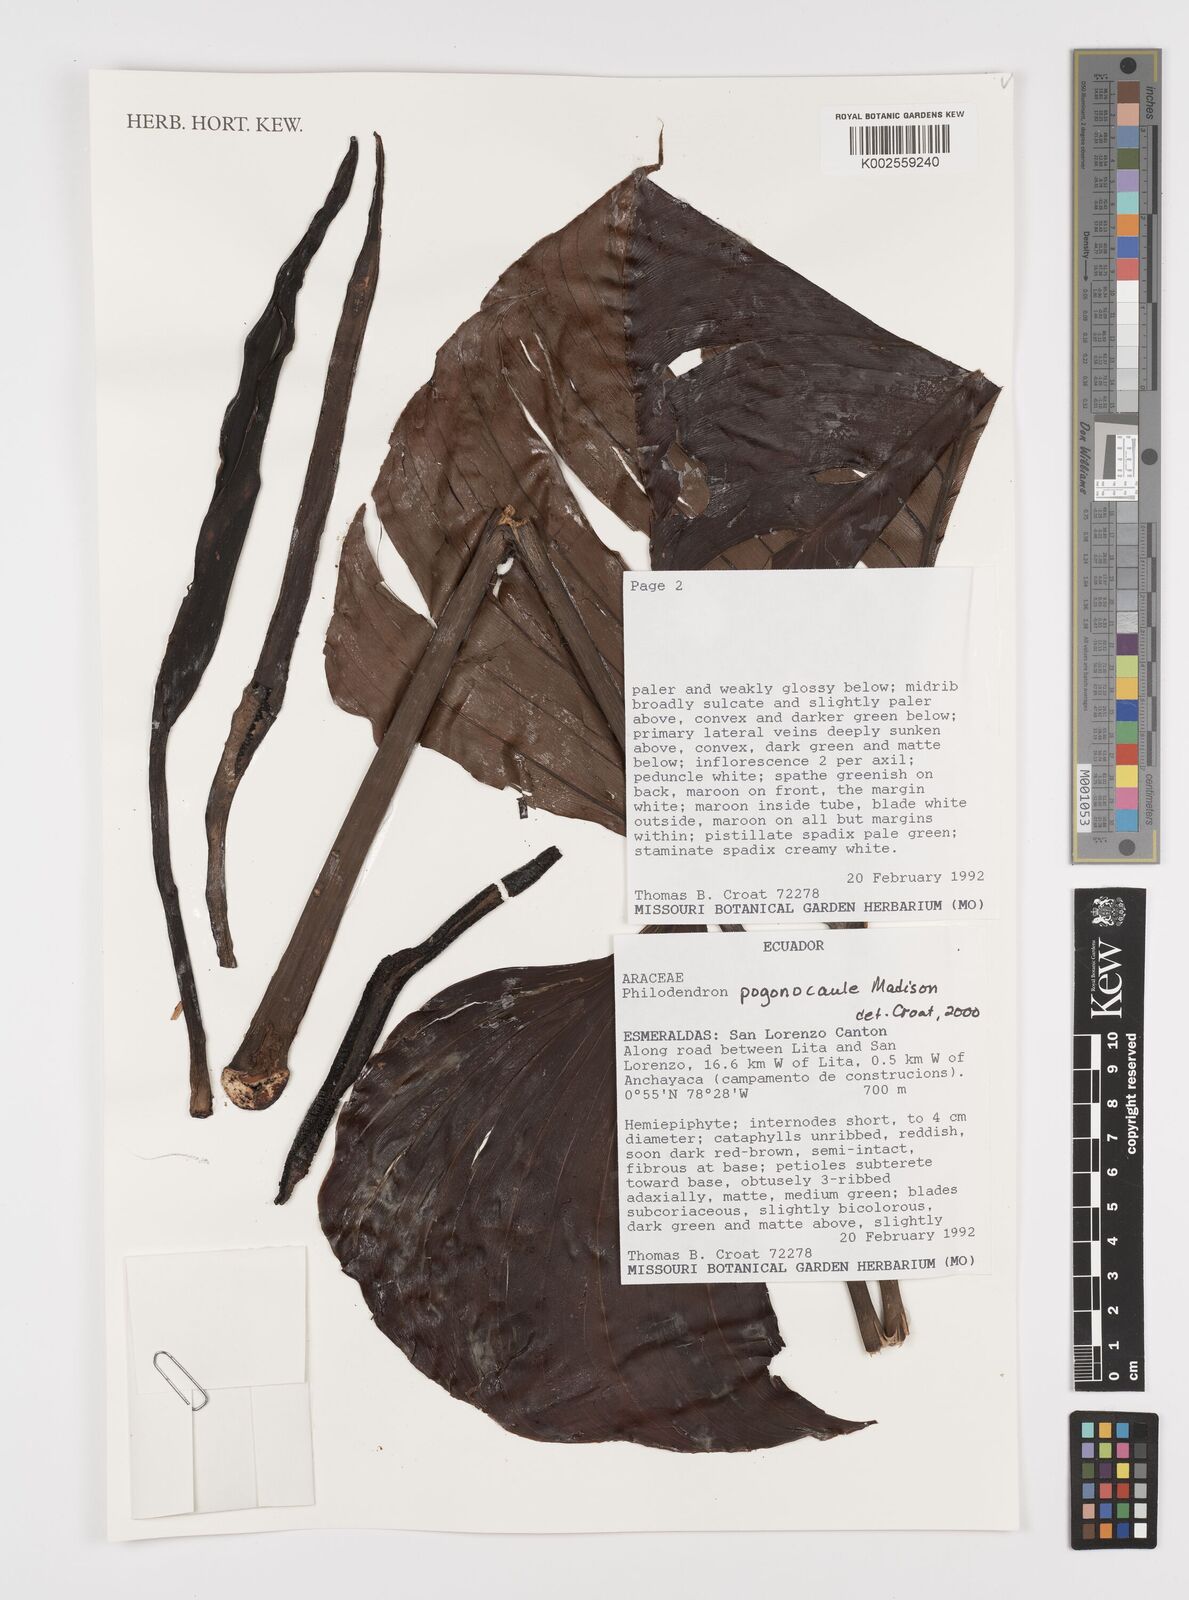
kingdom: Plantae
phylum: Tracheophyta
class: Liliopsida
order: Alismatales
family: Araceae
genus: Philodendron
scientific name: Philodendron pogonocaule
